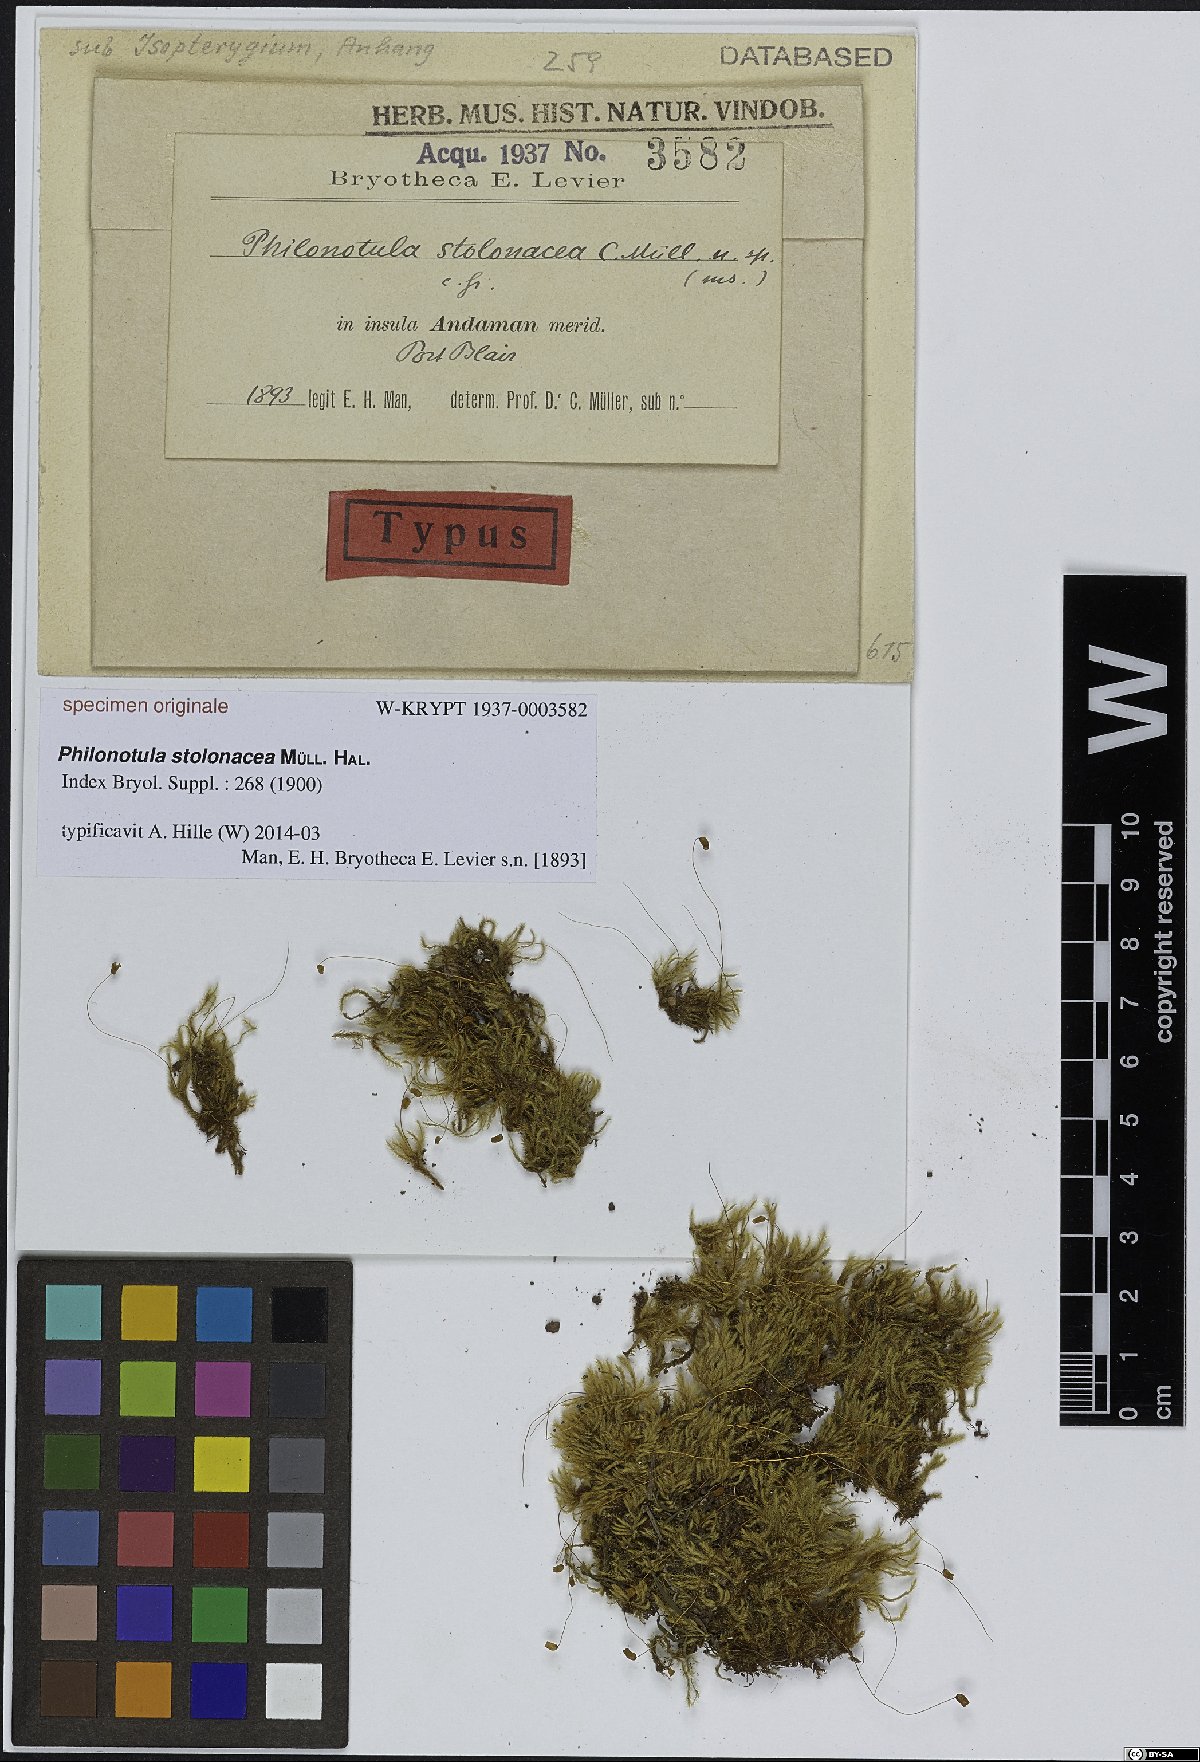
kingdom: Plantae
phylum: Bryophyta
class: Bryopsida
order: Bartramiales
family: Bartramiaceae
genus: Philonotis
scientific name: Philonotis
